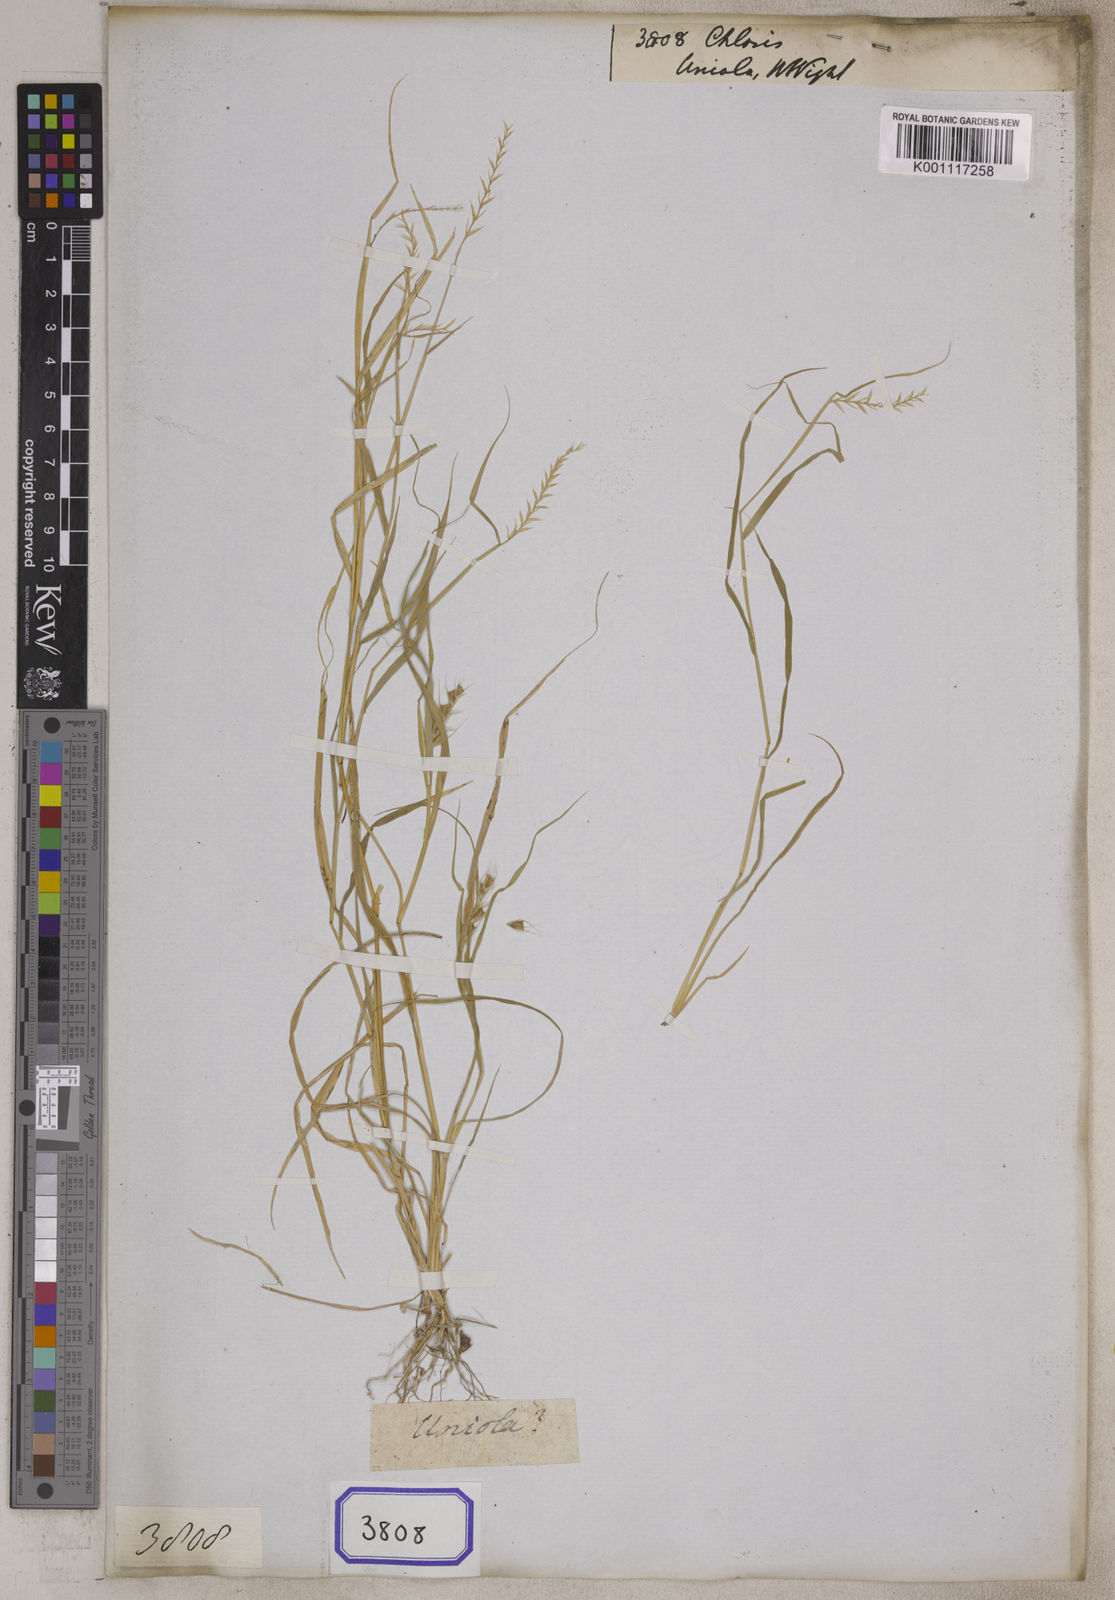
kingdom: Plantae
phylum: Tracheophyta
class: Liliopsida
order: Poales
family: Poaceae
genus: Chloris
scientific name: Chloris
